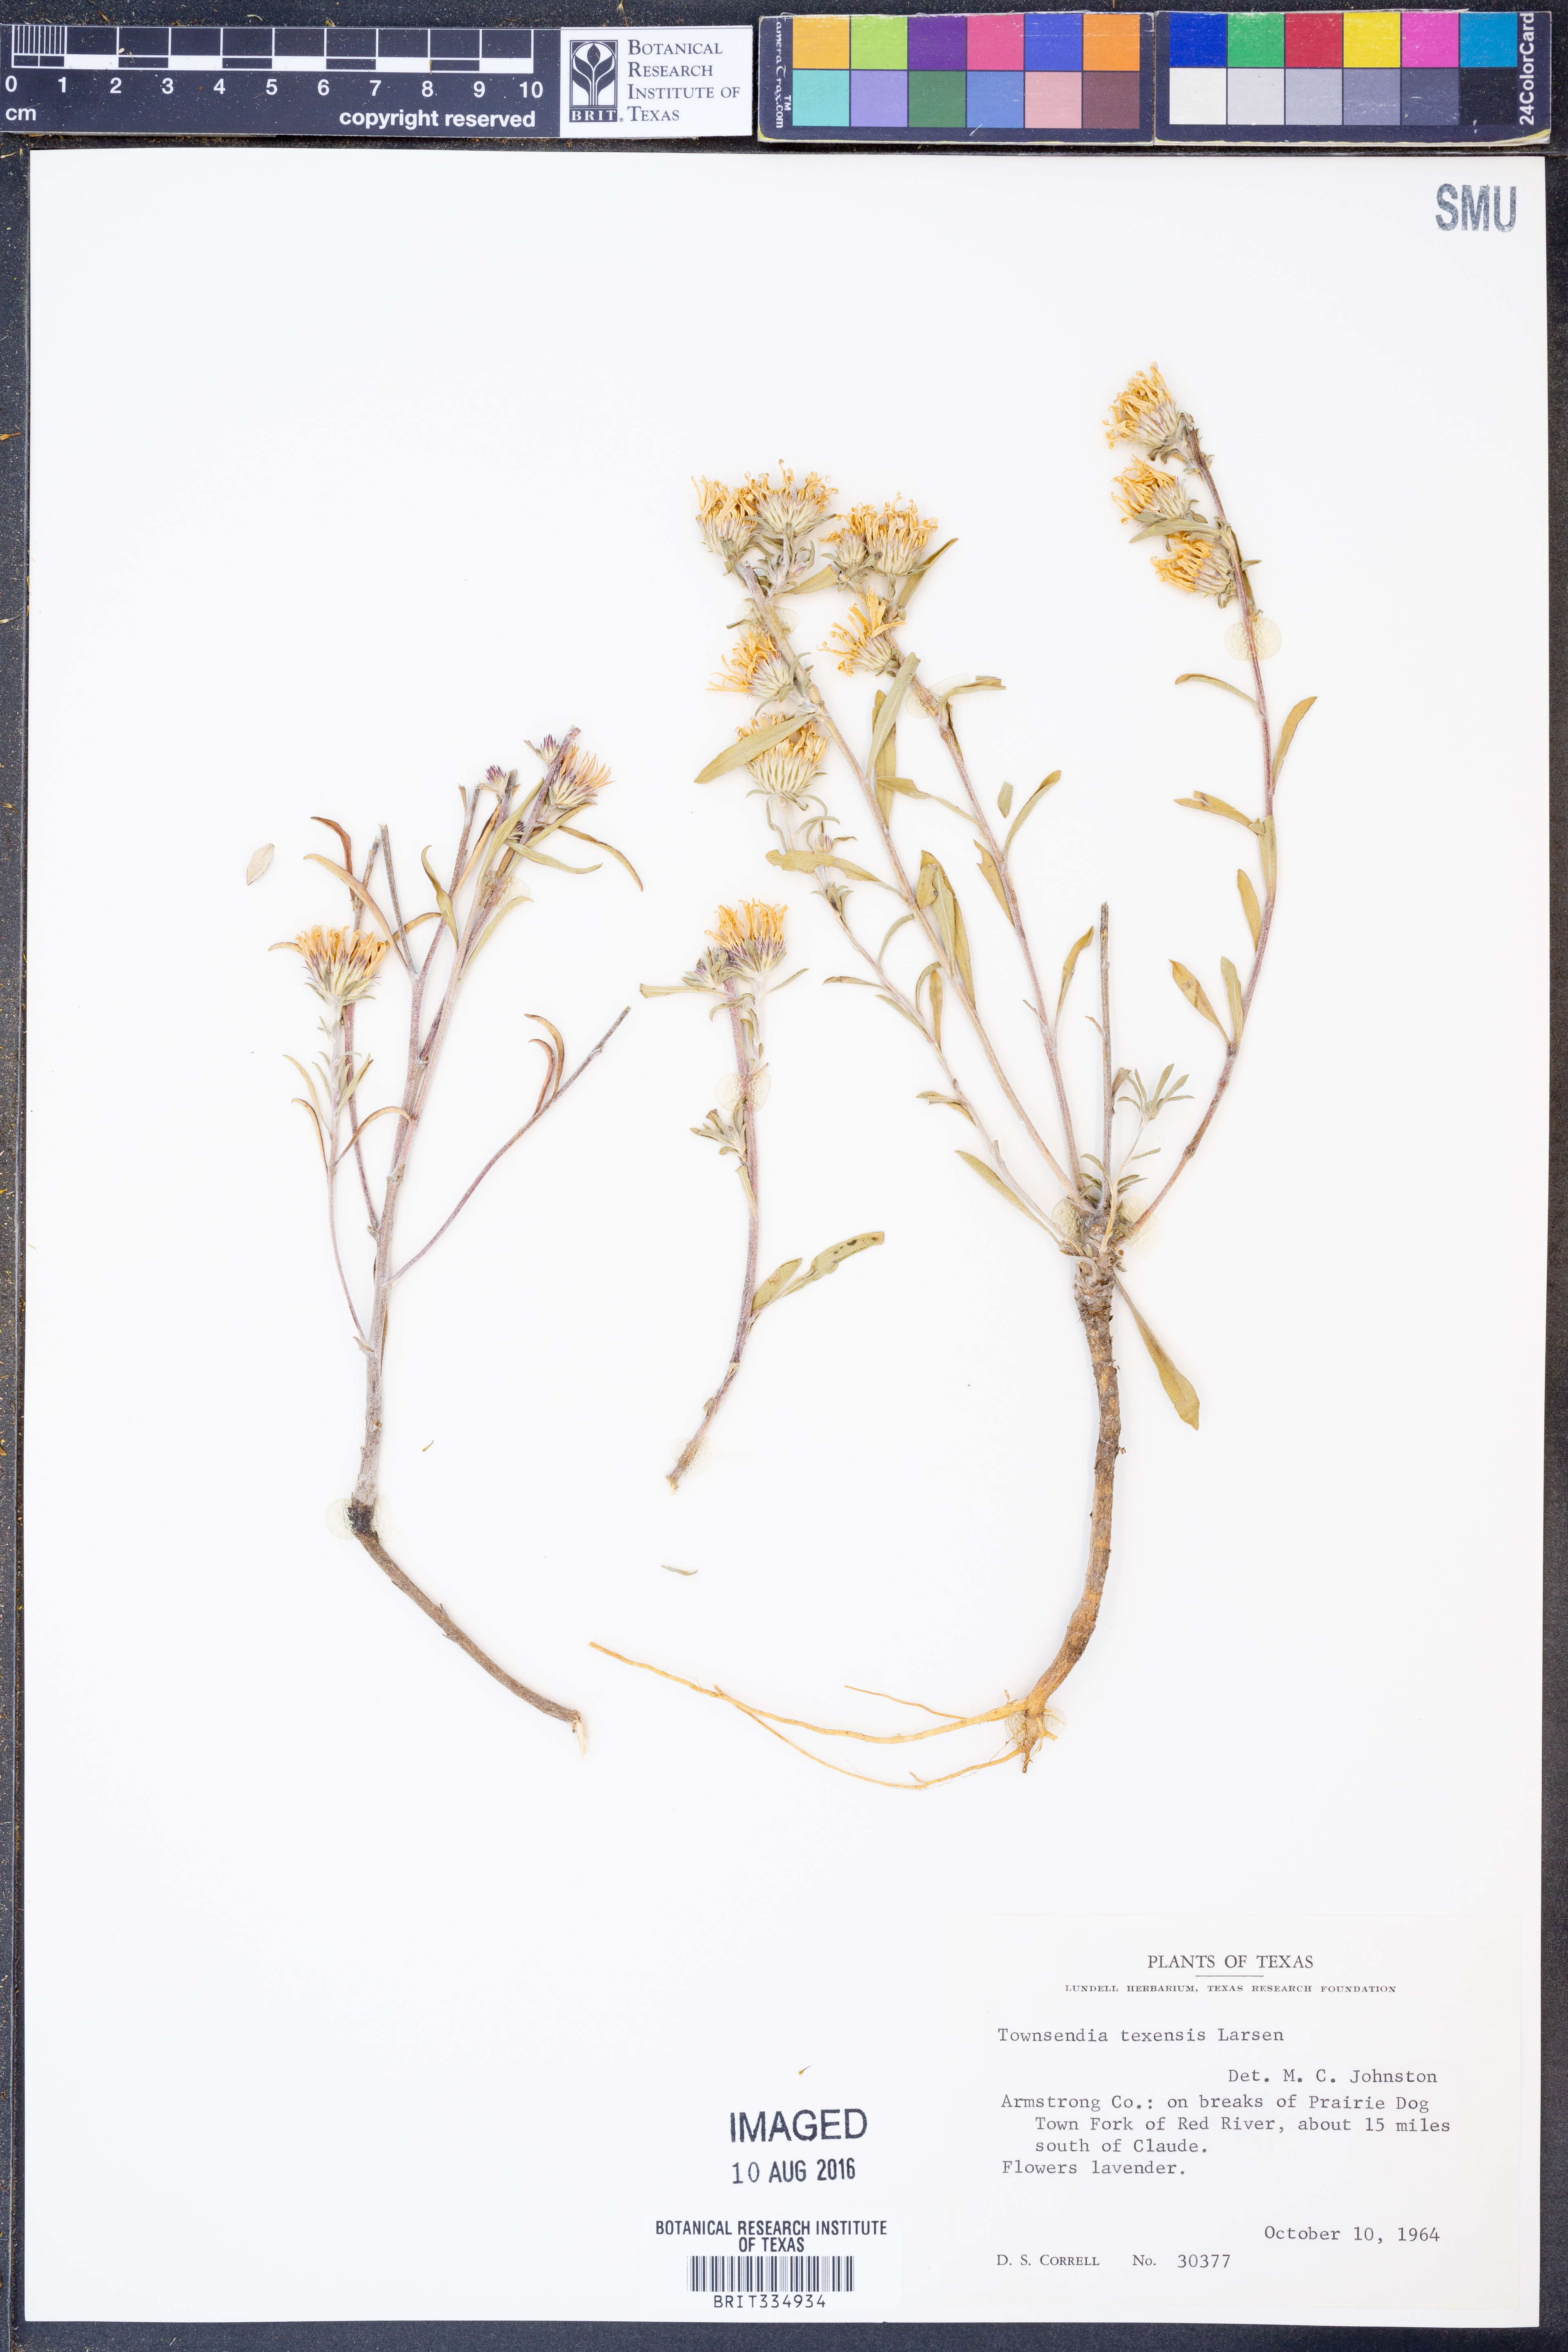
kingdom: Plantae
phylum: Tracheophyta
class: Magnoliopsida
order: Asterales
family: Asteraceae
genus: Townsendia
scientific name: Townsendia texensis
